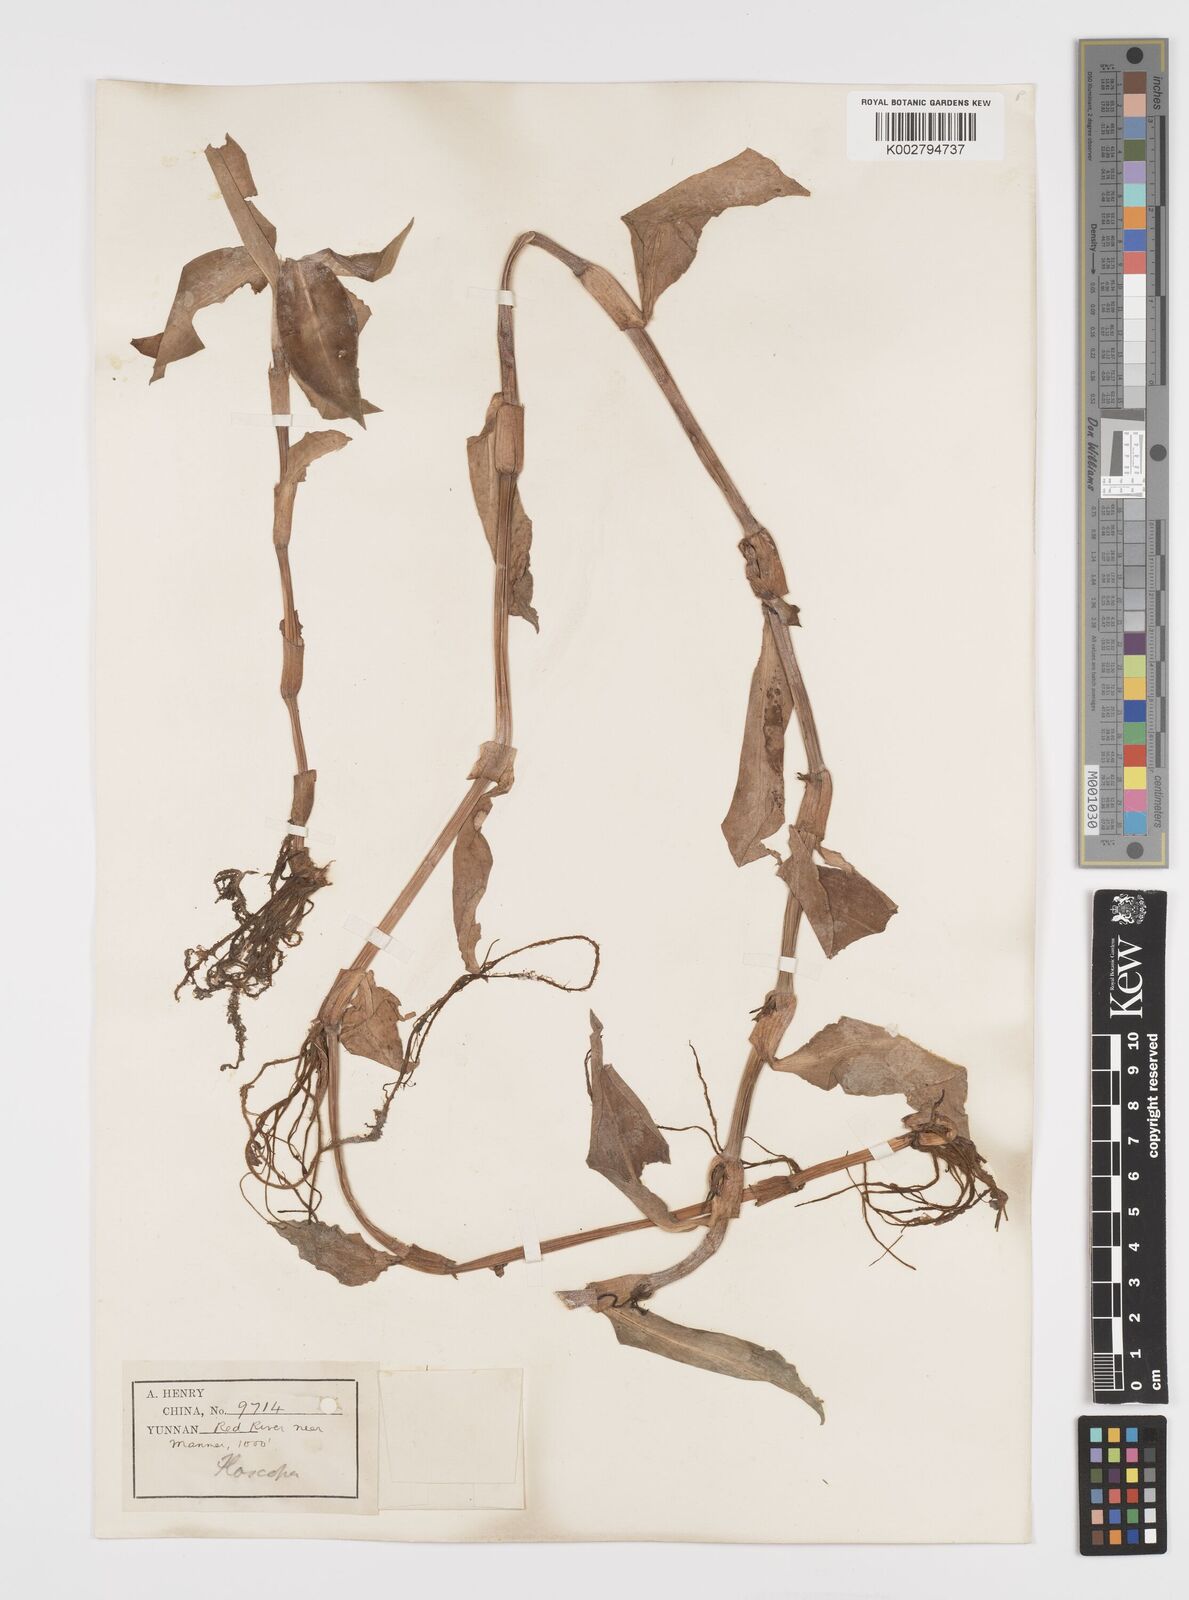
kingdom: Plantae
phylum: Tracheophyta
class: Liliopsida
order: Commelinales
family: Commelinaceae
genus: Floscopa
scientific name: Floscopa scandens
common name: Climbing flower cup
